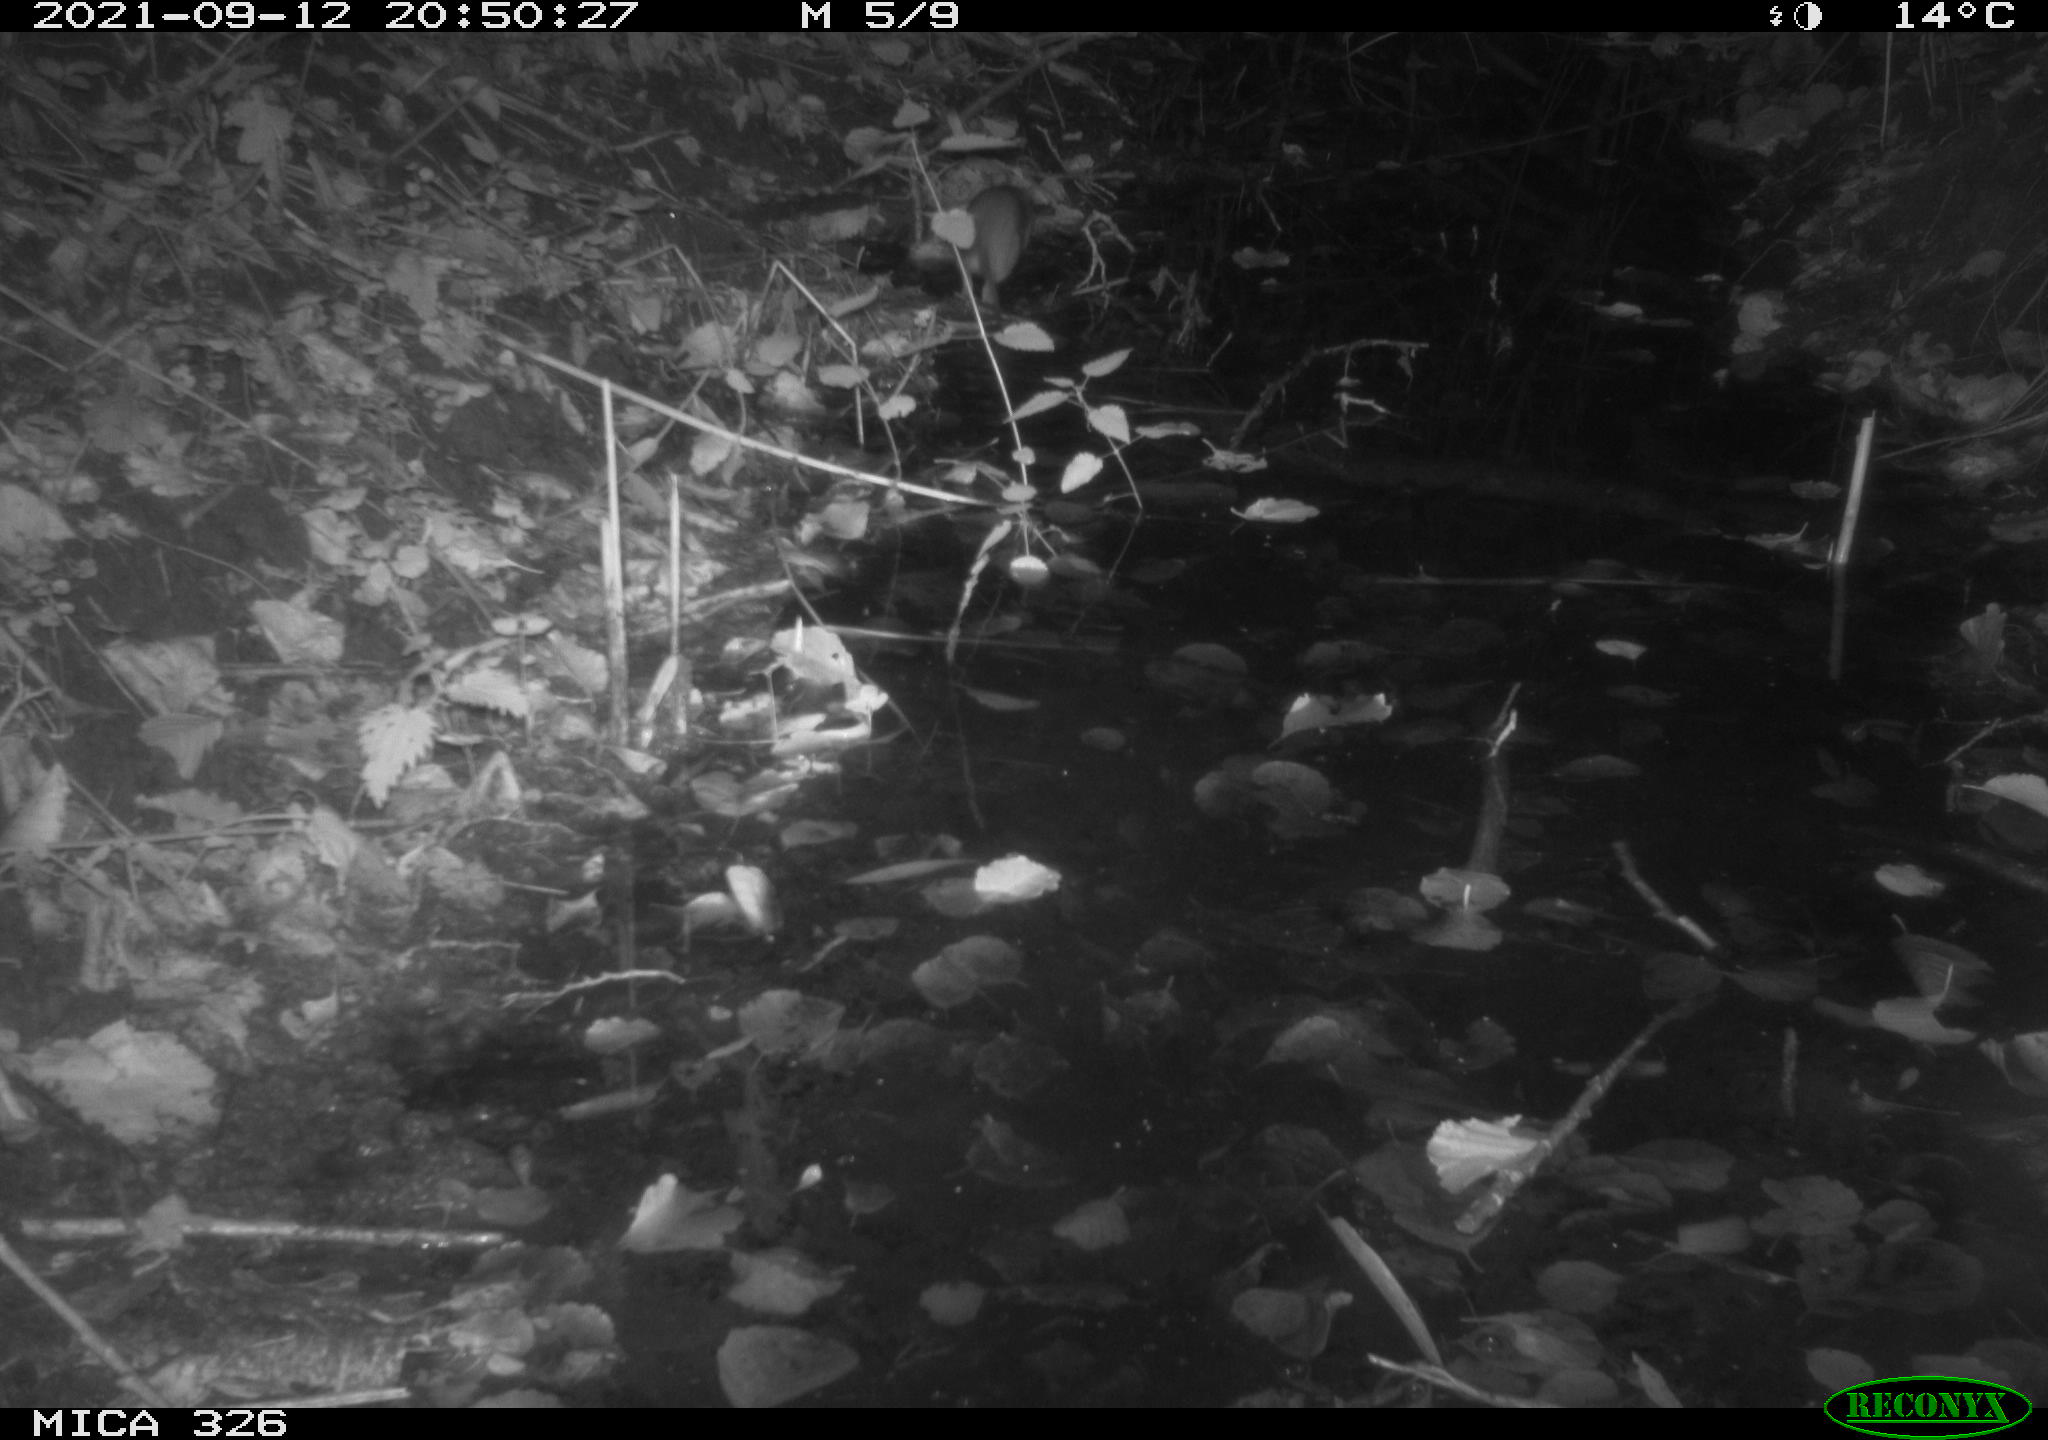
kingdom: Animalia
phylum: Chordata
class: Mammalia
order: Rodentia
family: Muridae
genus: Rattus
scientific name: Rattus norvegicus
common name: Brown rat
